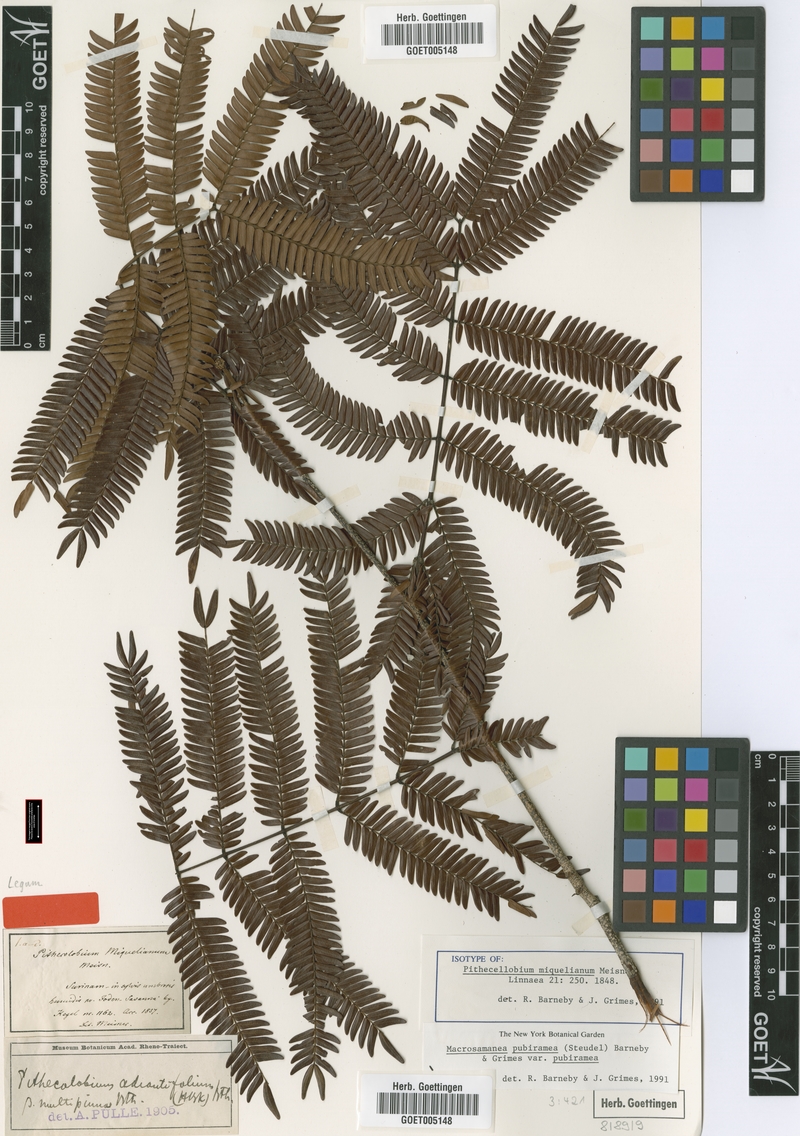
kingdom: Plantae
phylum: Tracheophyta
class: Magnoliopsida
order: Fabales
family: Fabaceae
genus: Macrosamanea
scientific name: Macrosamanea pubiramea
